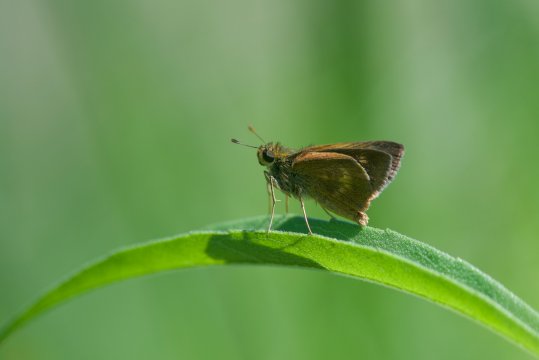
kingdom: Animalia
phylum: Arthropoda
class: Insecta
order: Lepidoptera
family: Hesperiidae
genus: Polites
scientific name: Polites egeremet
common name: Northern Broken-Dash
